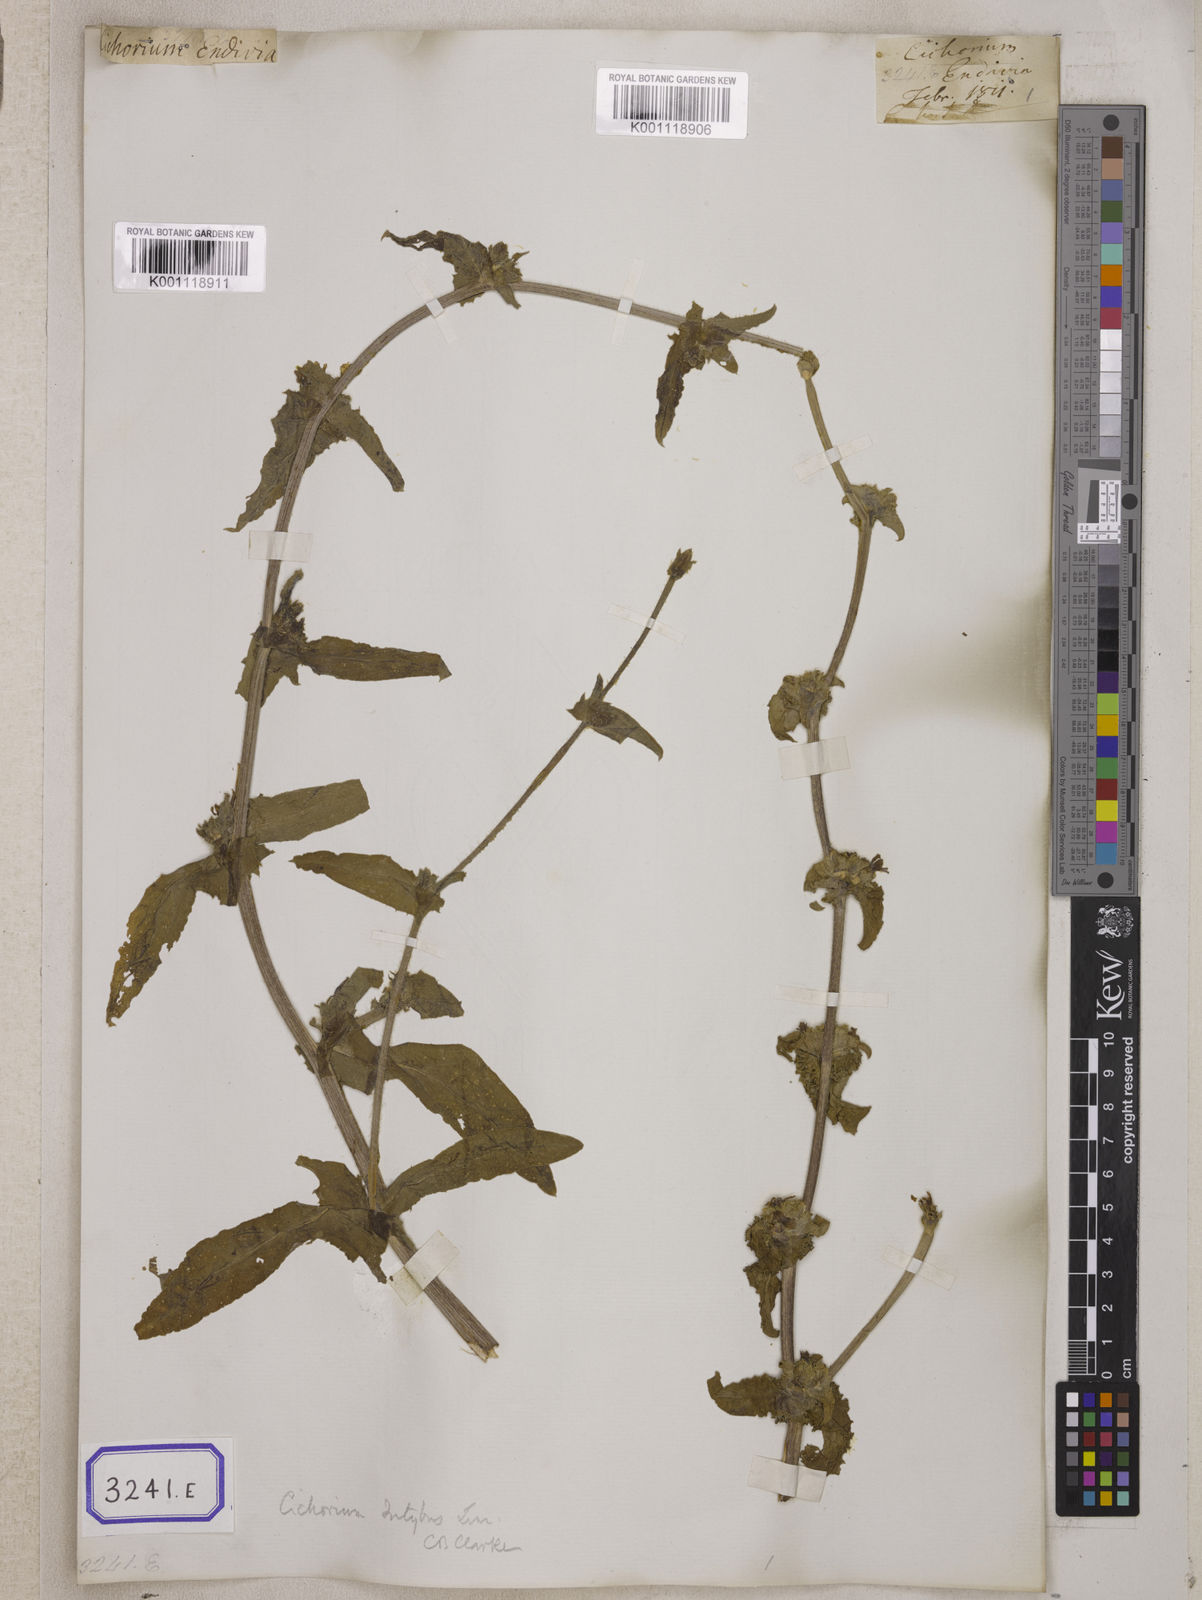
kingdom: Plantae
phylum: Tracheophyta
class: Magnoliopsida
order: Asterales
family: Asteraceae
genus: Cichorium
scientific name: Cichorium intybus
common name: Chicory
